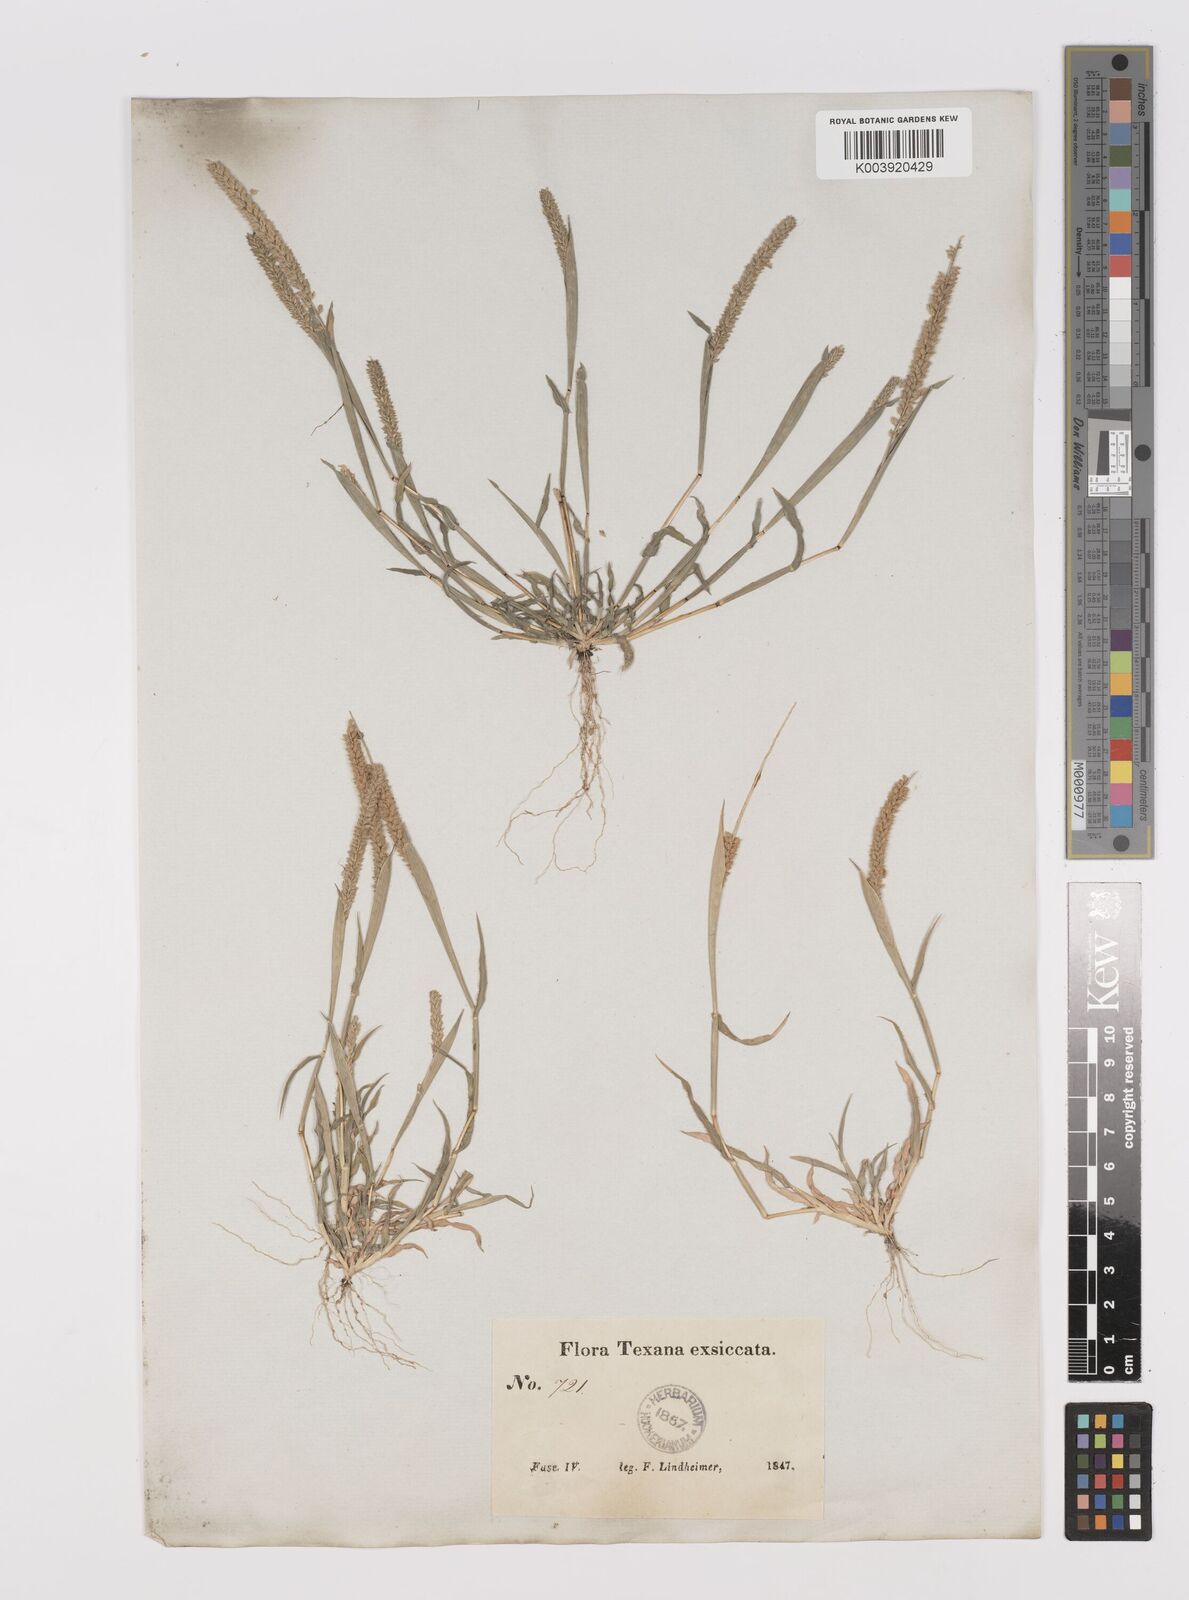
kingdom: Plantae
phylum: Tracheophyta
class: Liliopsida
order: Poales
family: Poaceae
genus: Tragus
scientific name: Tragus berteronianus
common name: African bur-grass
